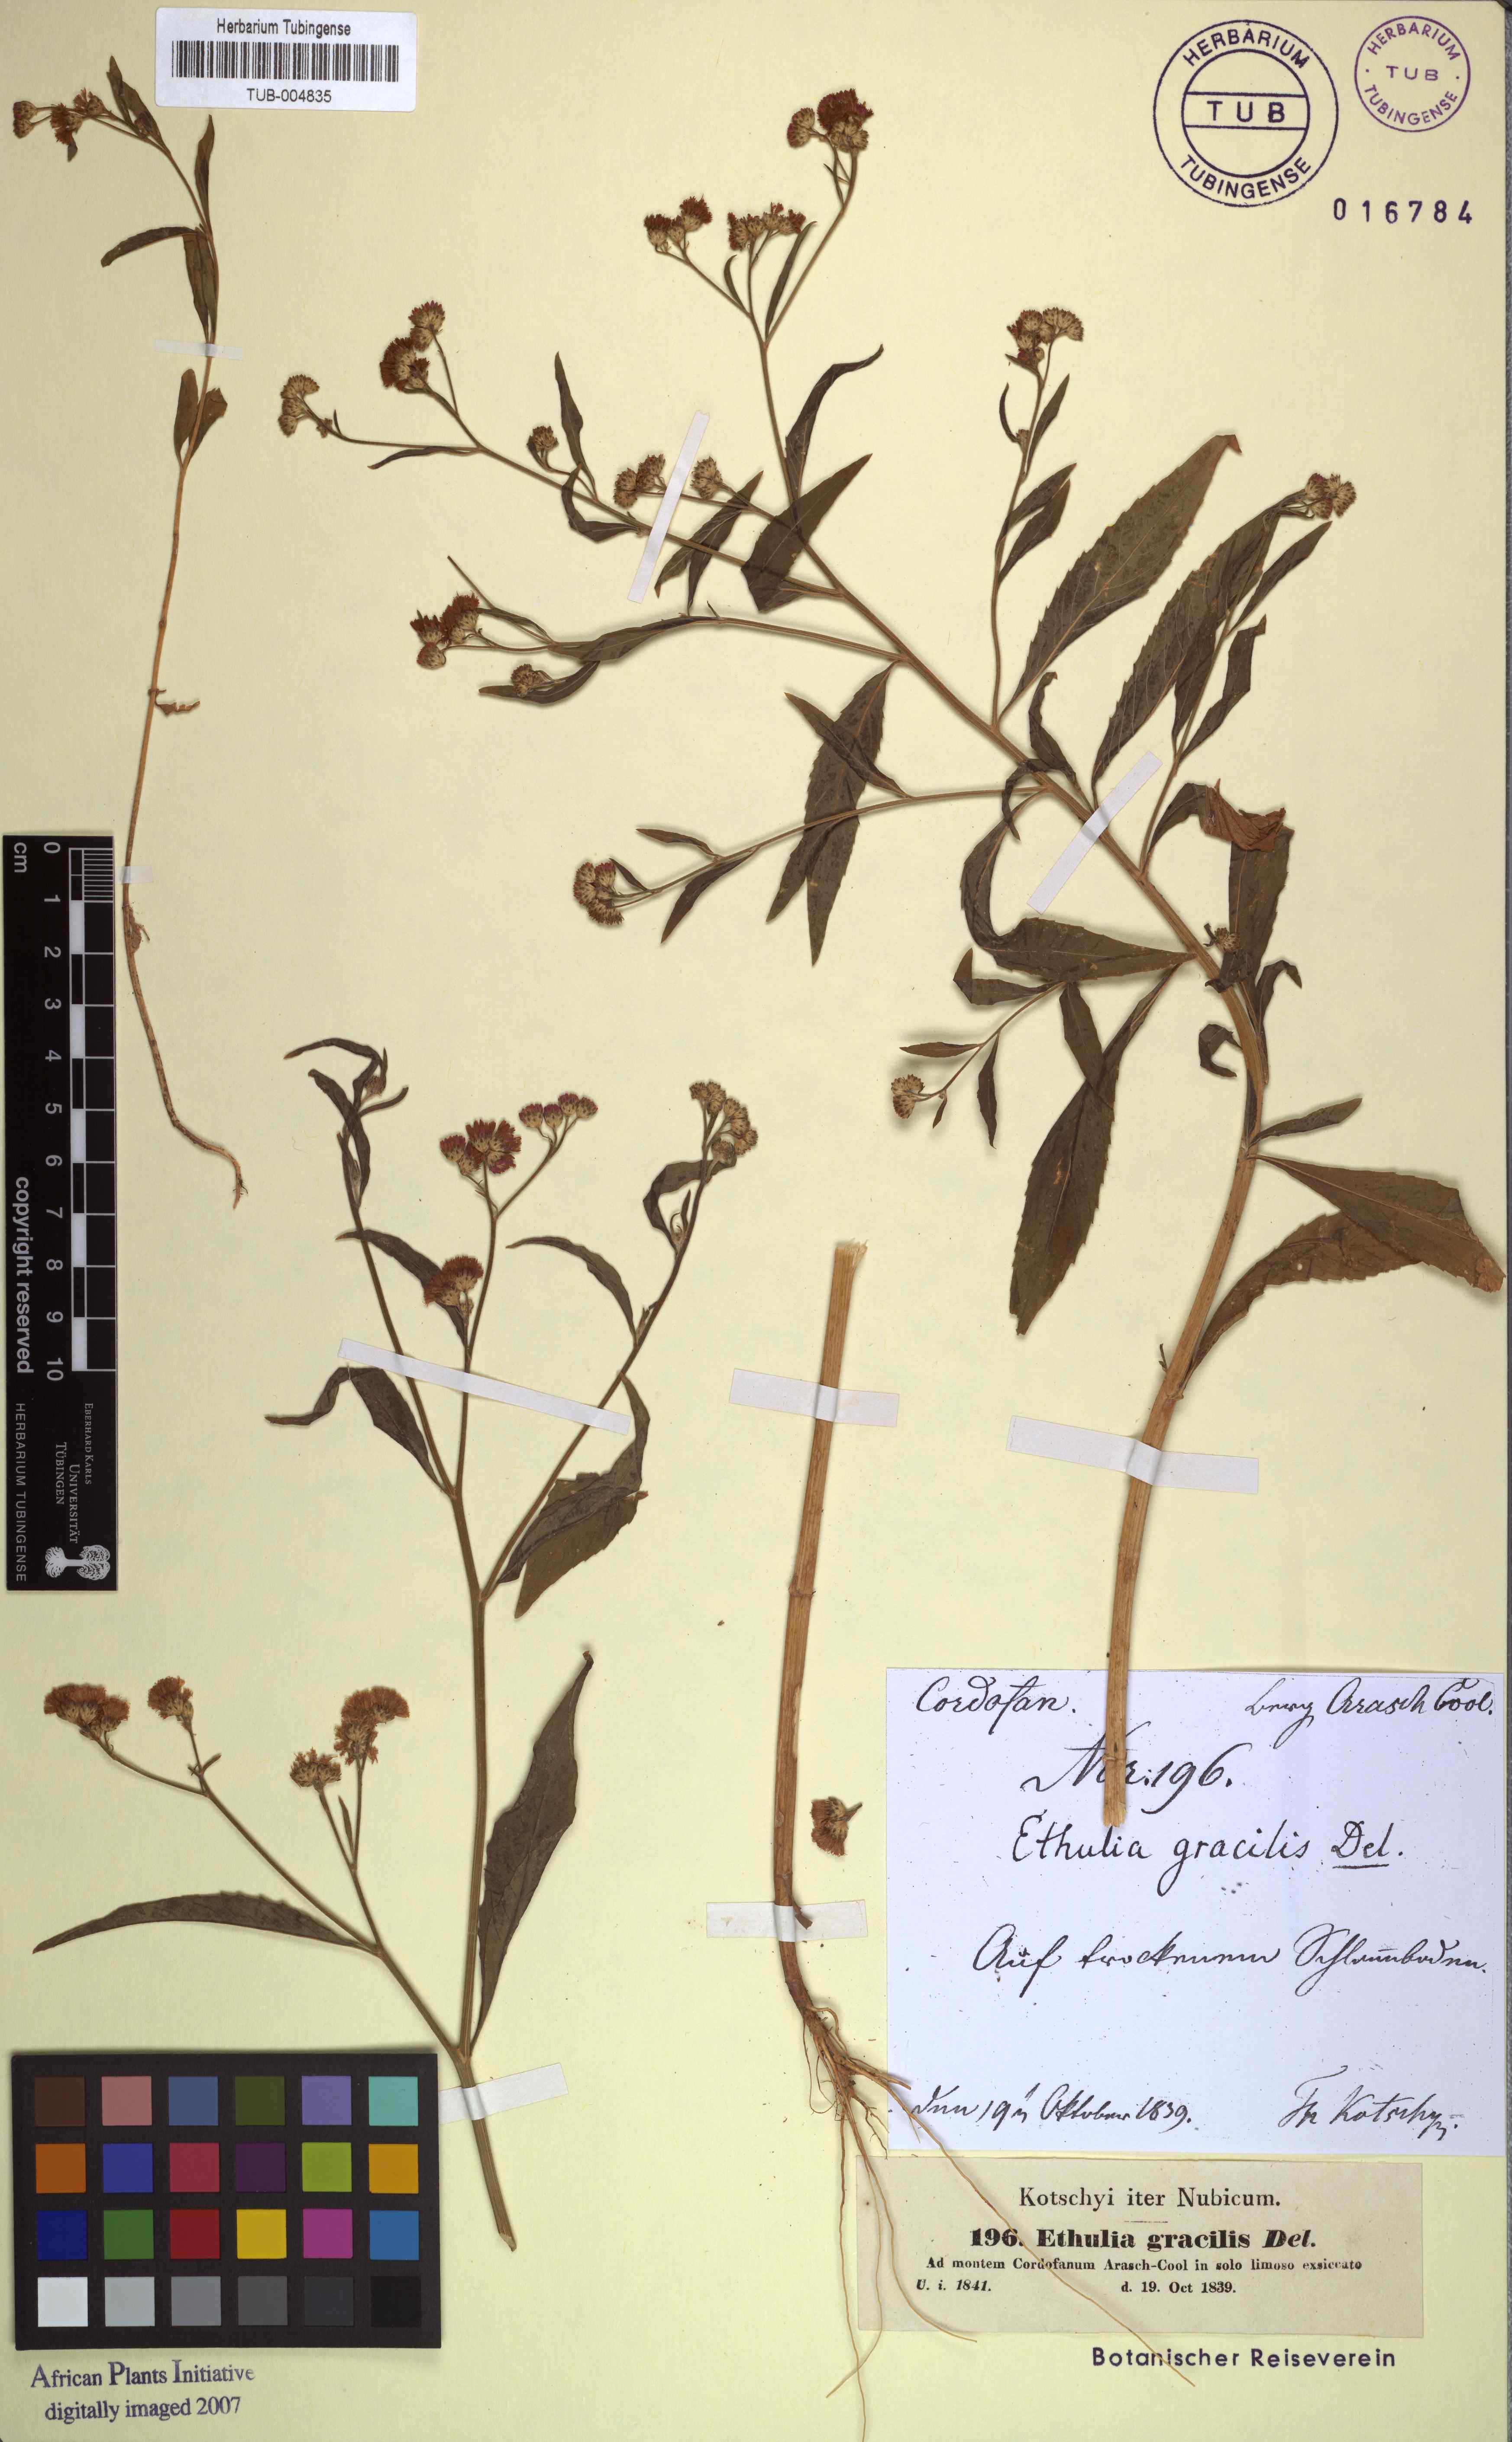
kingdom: Plantae
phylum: Tracheophyta
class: Magnoliopsida
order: Asterales
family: Asteraceae
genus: Ethulia
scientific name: Ethulia conyzoides
